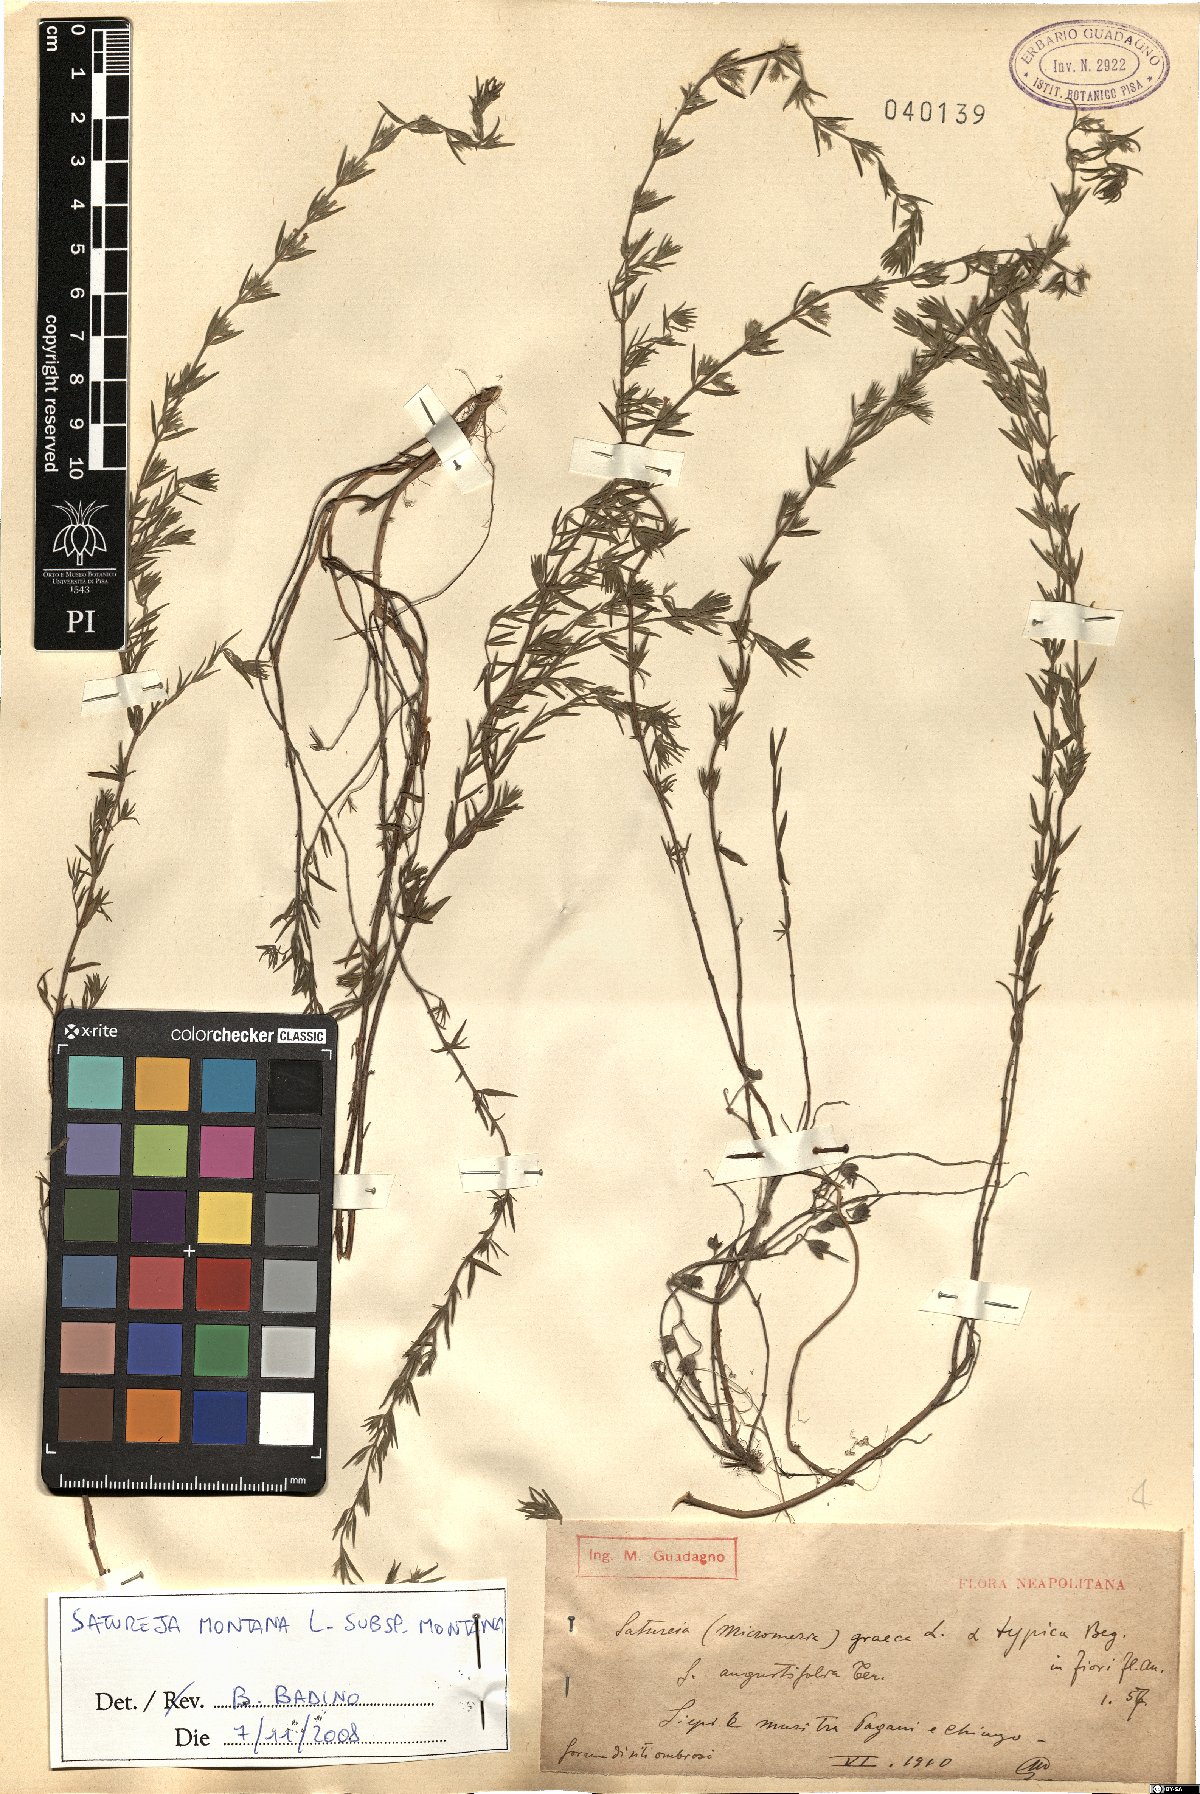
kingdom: Plantae
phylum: Tracheophyta
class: Magnoliopsida
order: Lamiales
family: Lamiaceae
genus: Satureja
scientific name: Satureja montana
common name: Winter savory
